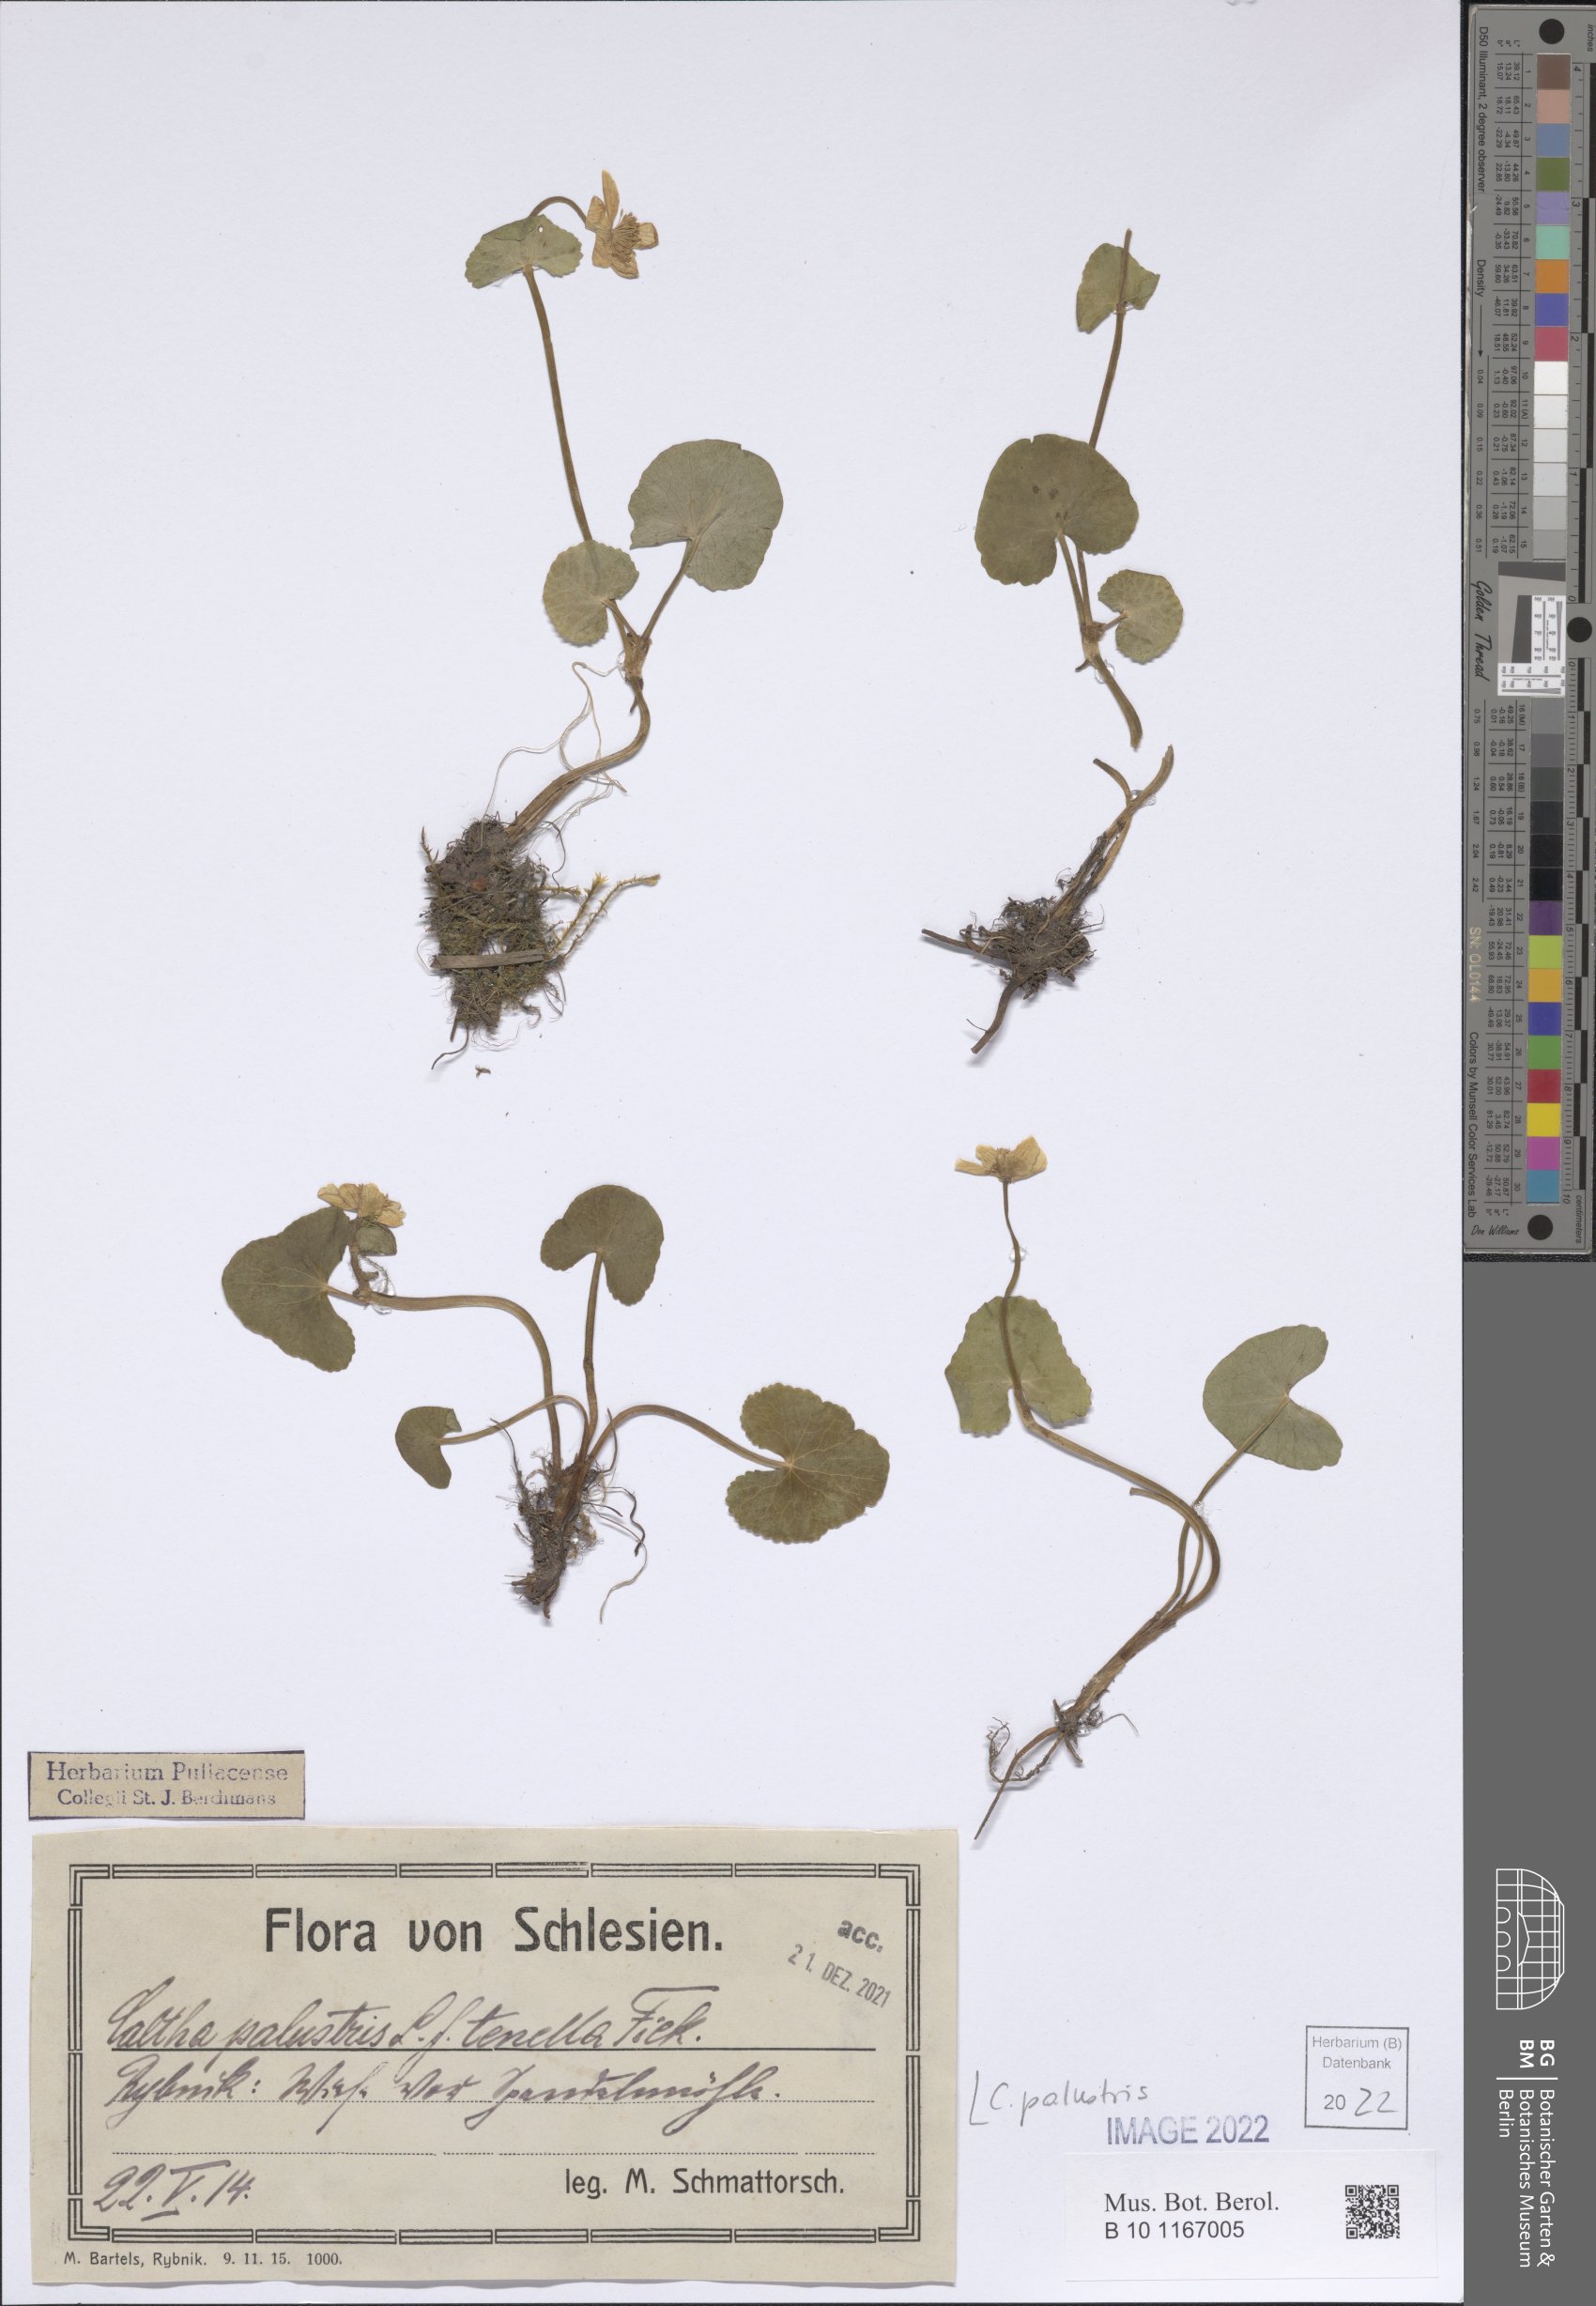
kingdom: Plantae
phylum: Tracheophyta
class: Magnoliopsida
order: Ranunculales
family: Ranunculaceae
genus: Caltha
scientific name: Caltha palustris
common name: Marsh marigold
